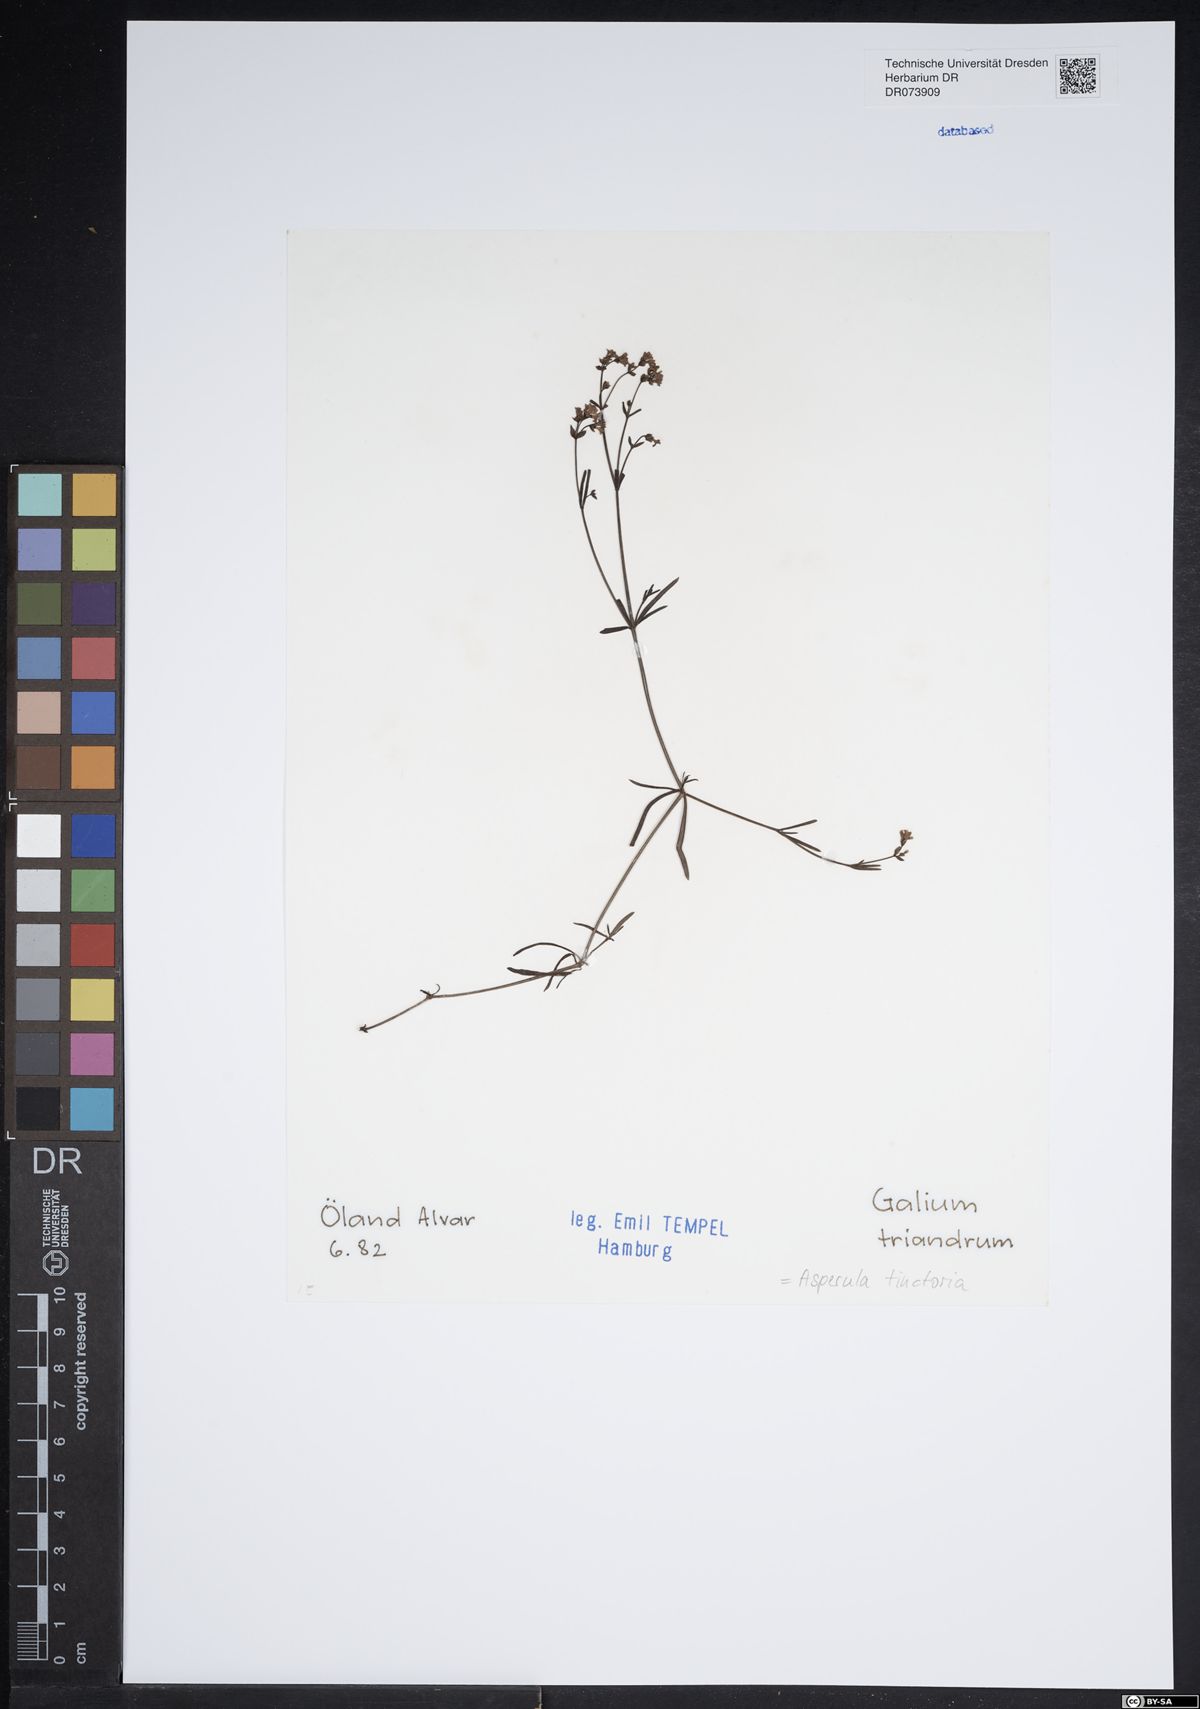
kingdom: Plantae
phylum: Tracheophyta
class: Magnoliopsida
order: Gentianales
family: Rubiaceae
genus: Asperula
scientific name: Asperula tinctoria
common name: Dyer's woodruff
